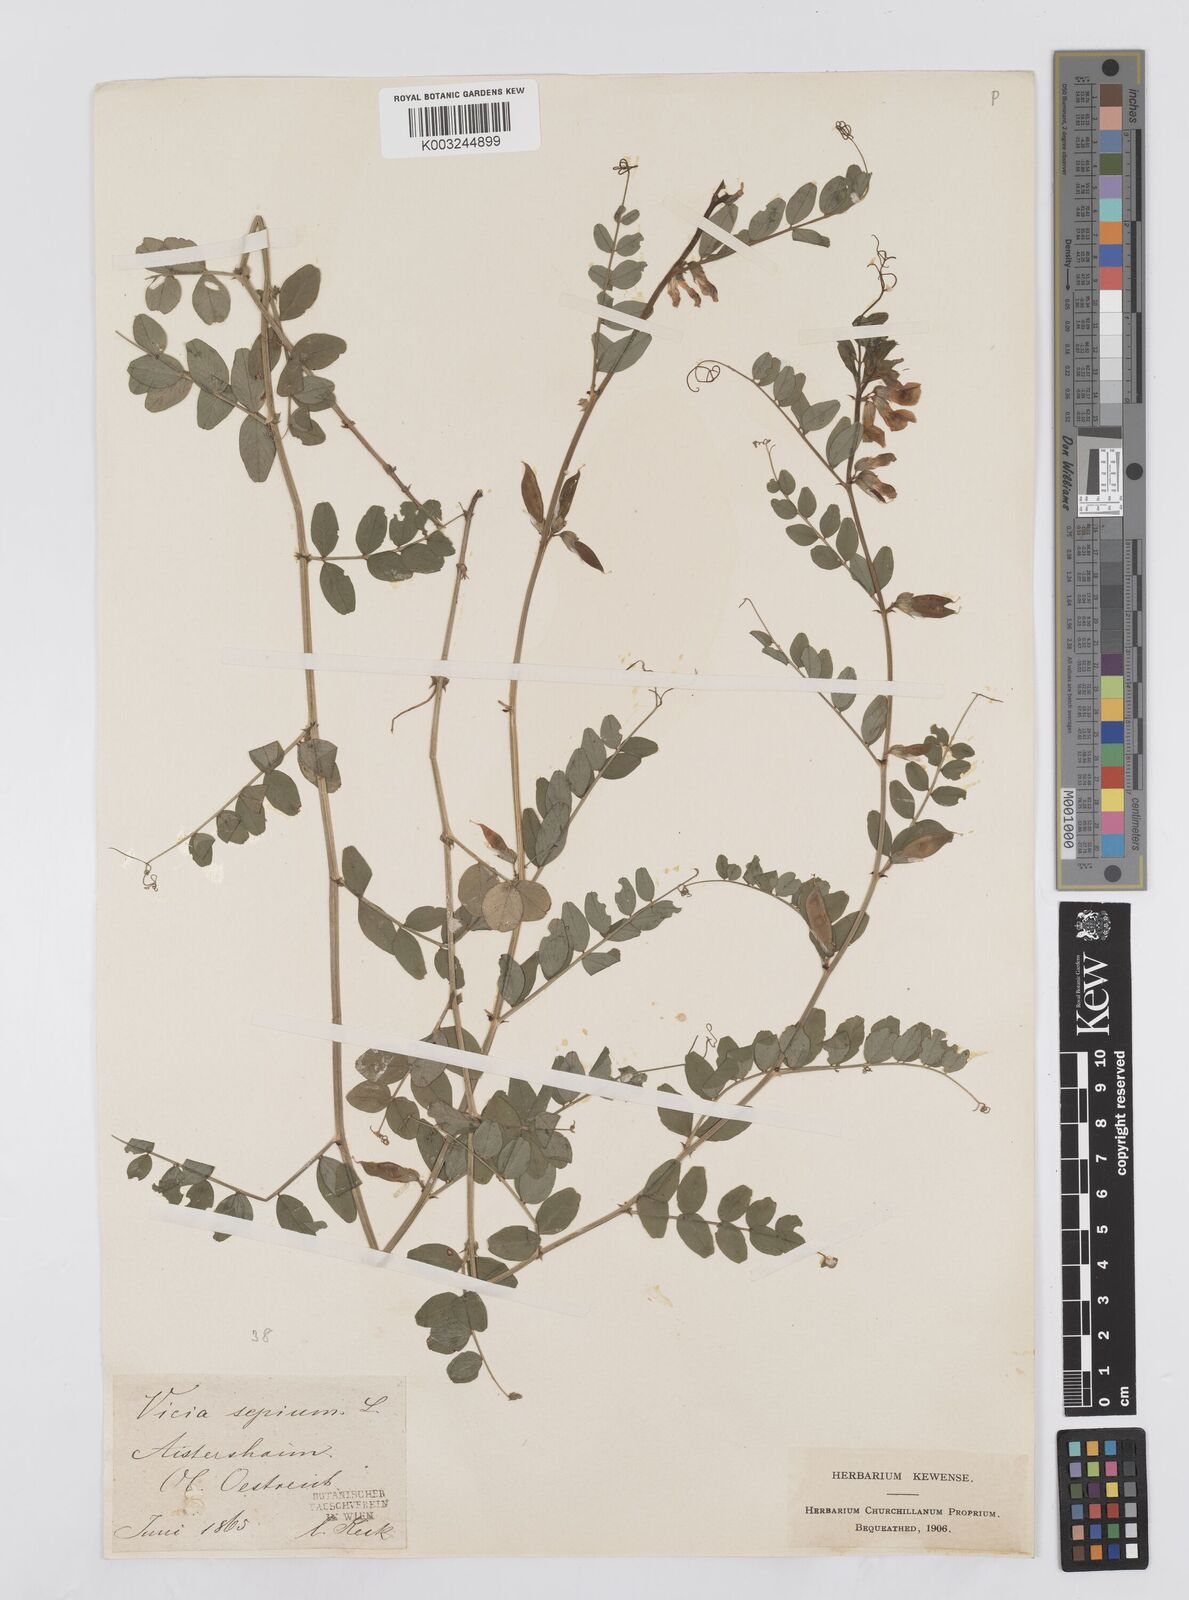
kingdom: Plantae
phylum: Tracheophyta
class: Magnoliopsida
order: Fabales
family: Fabaceae
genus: Vicia
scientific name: Vicia sepium
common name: Bush vetch
